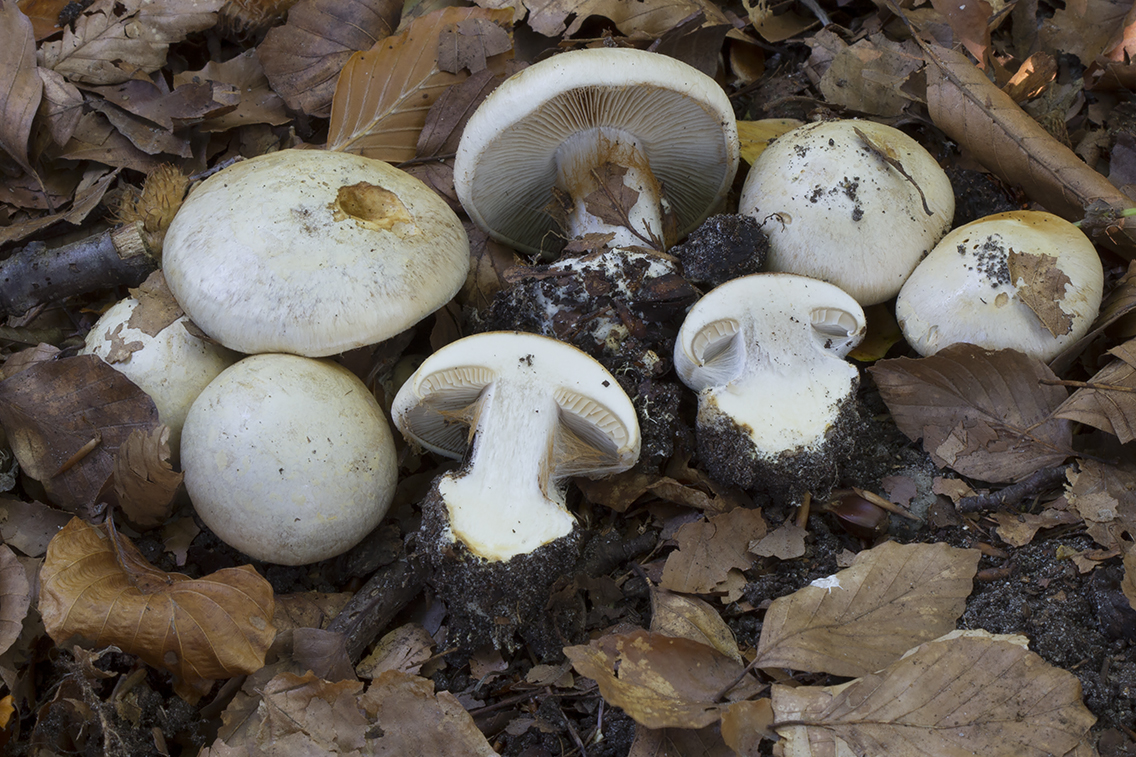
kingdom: Fungi
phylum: Basidiomycota
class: Agaricomycetes
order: Agaricales
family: Cortinariaceae
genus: Cortinarius
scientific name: Cortinarius foetens
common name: stribet slørhat
